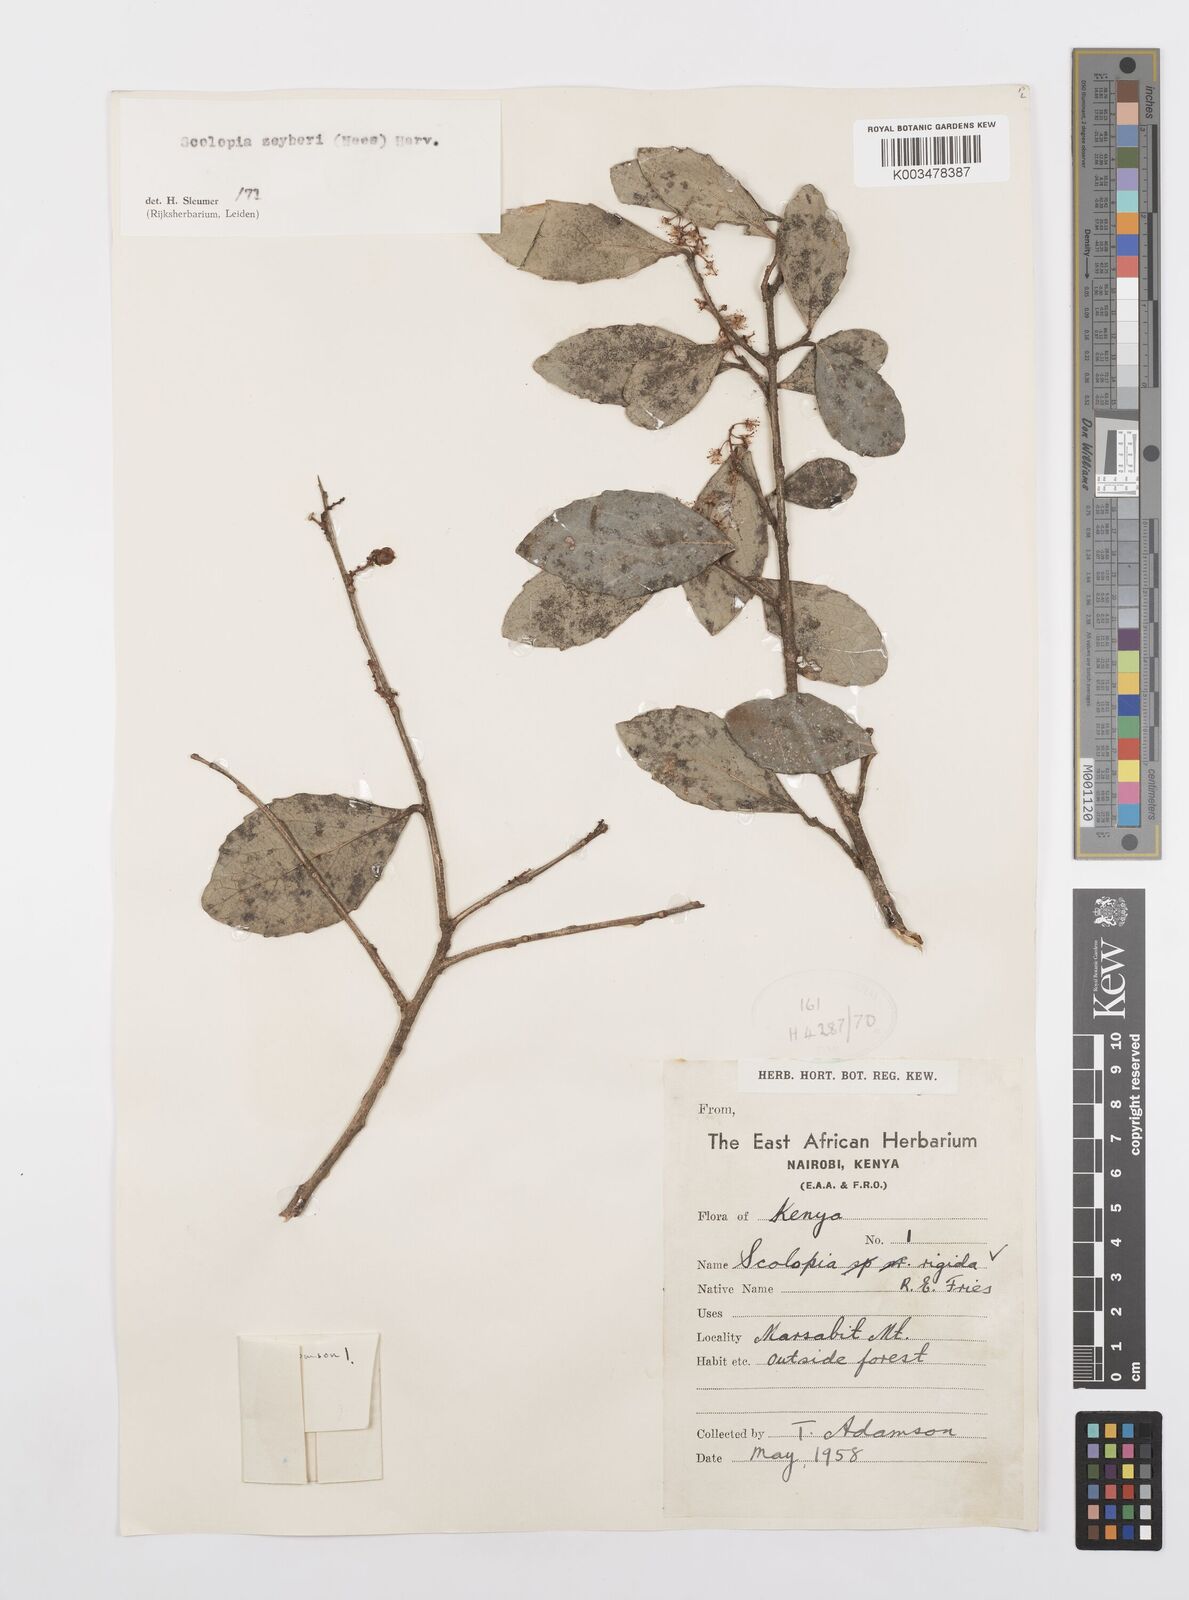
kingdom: Plantae
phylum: Tracheophyta
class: Magnoliopsida
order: Malpighiales
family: Salicaceae
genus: Scolopia
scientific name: Scolopia zeyheri
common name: Thorn pear
